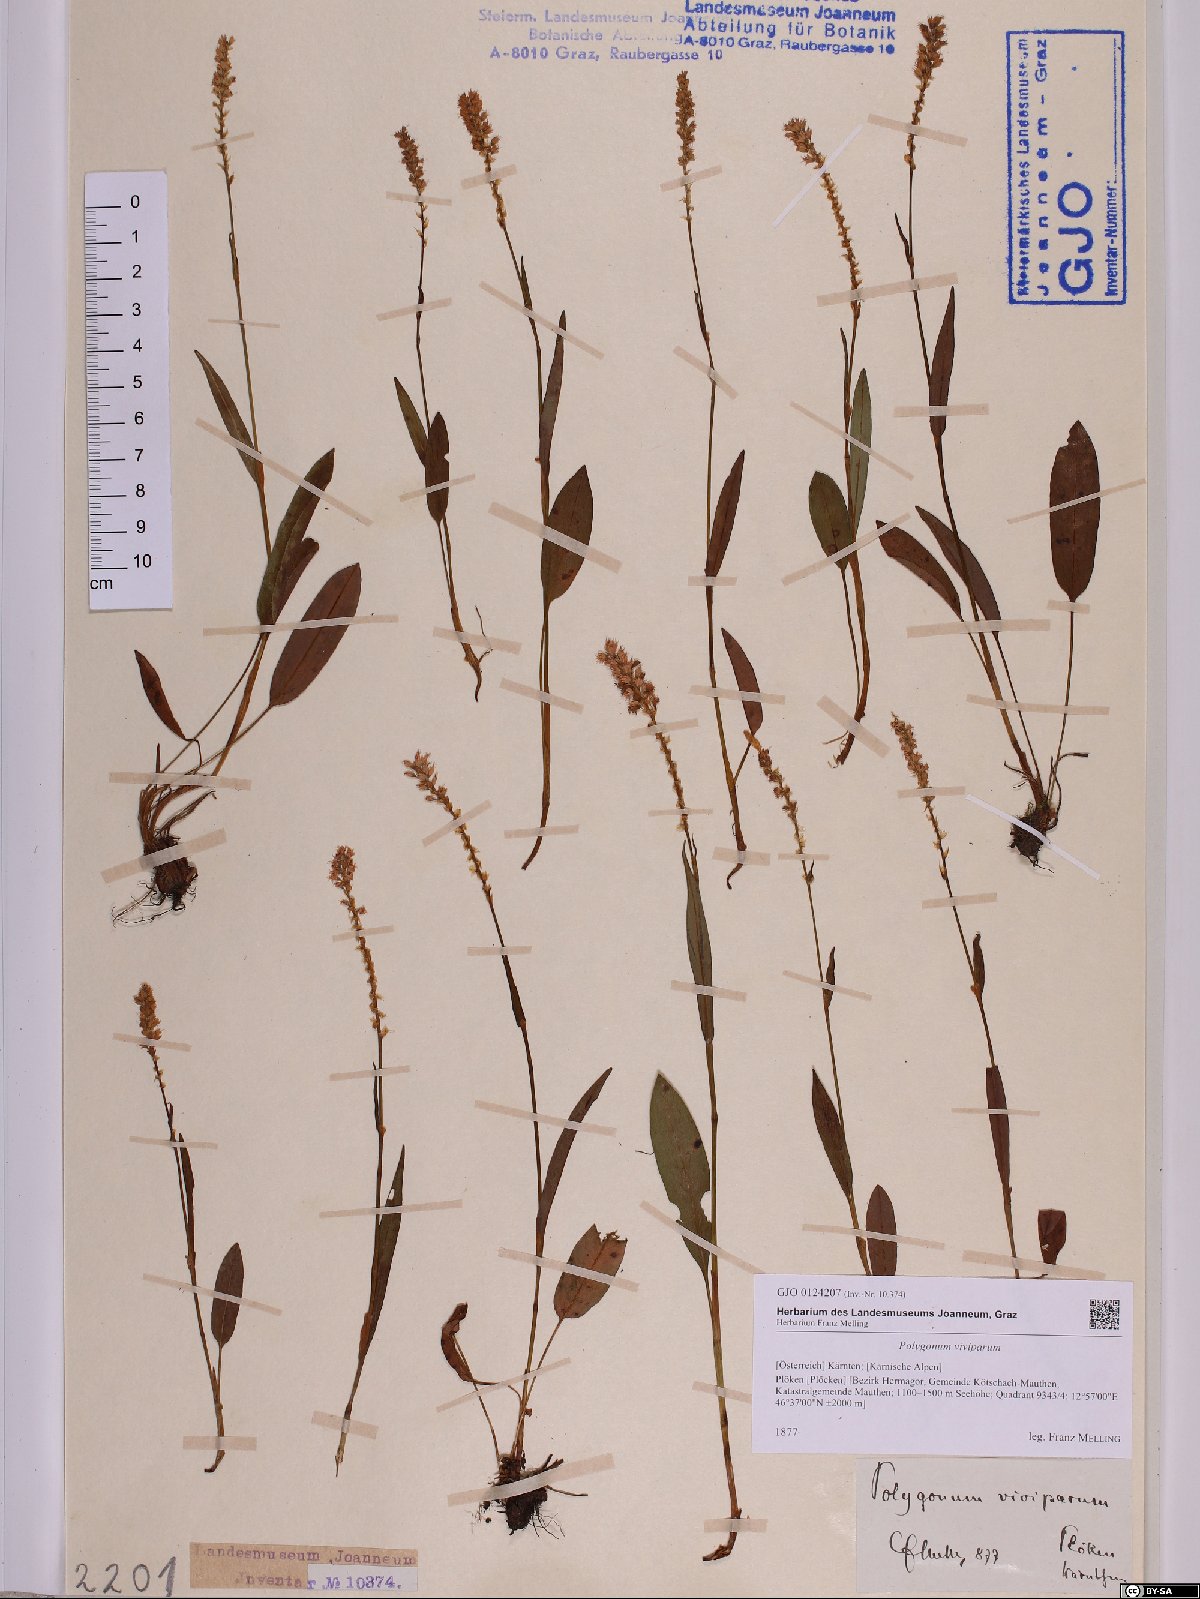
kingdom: Plantae
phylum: Tracheophyta
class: Magnoliopsida
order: Caryophyllales
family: Polygonaceae
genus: Bistorta
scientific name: Bistorta vivipara
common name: Alpine bistort
